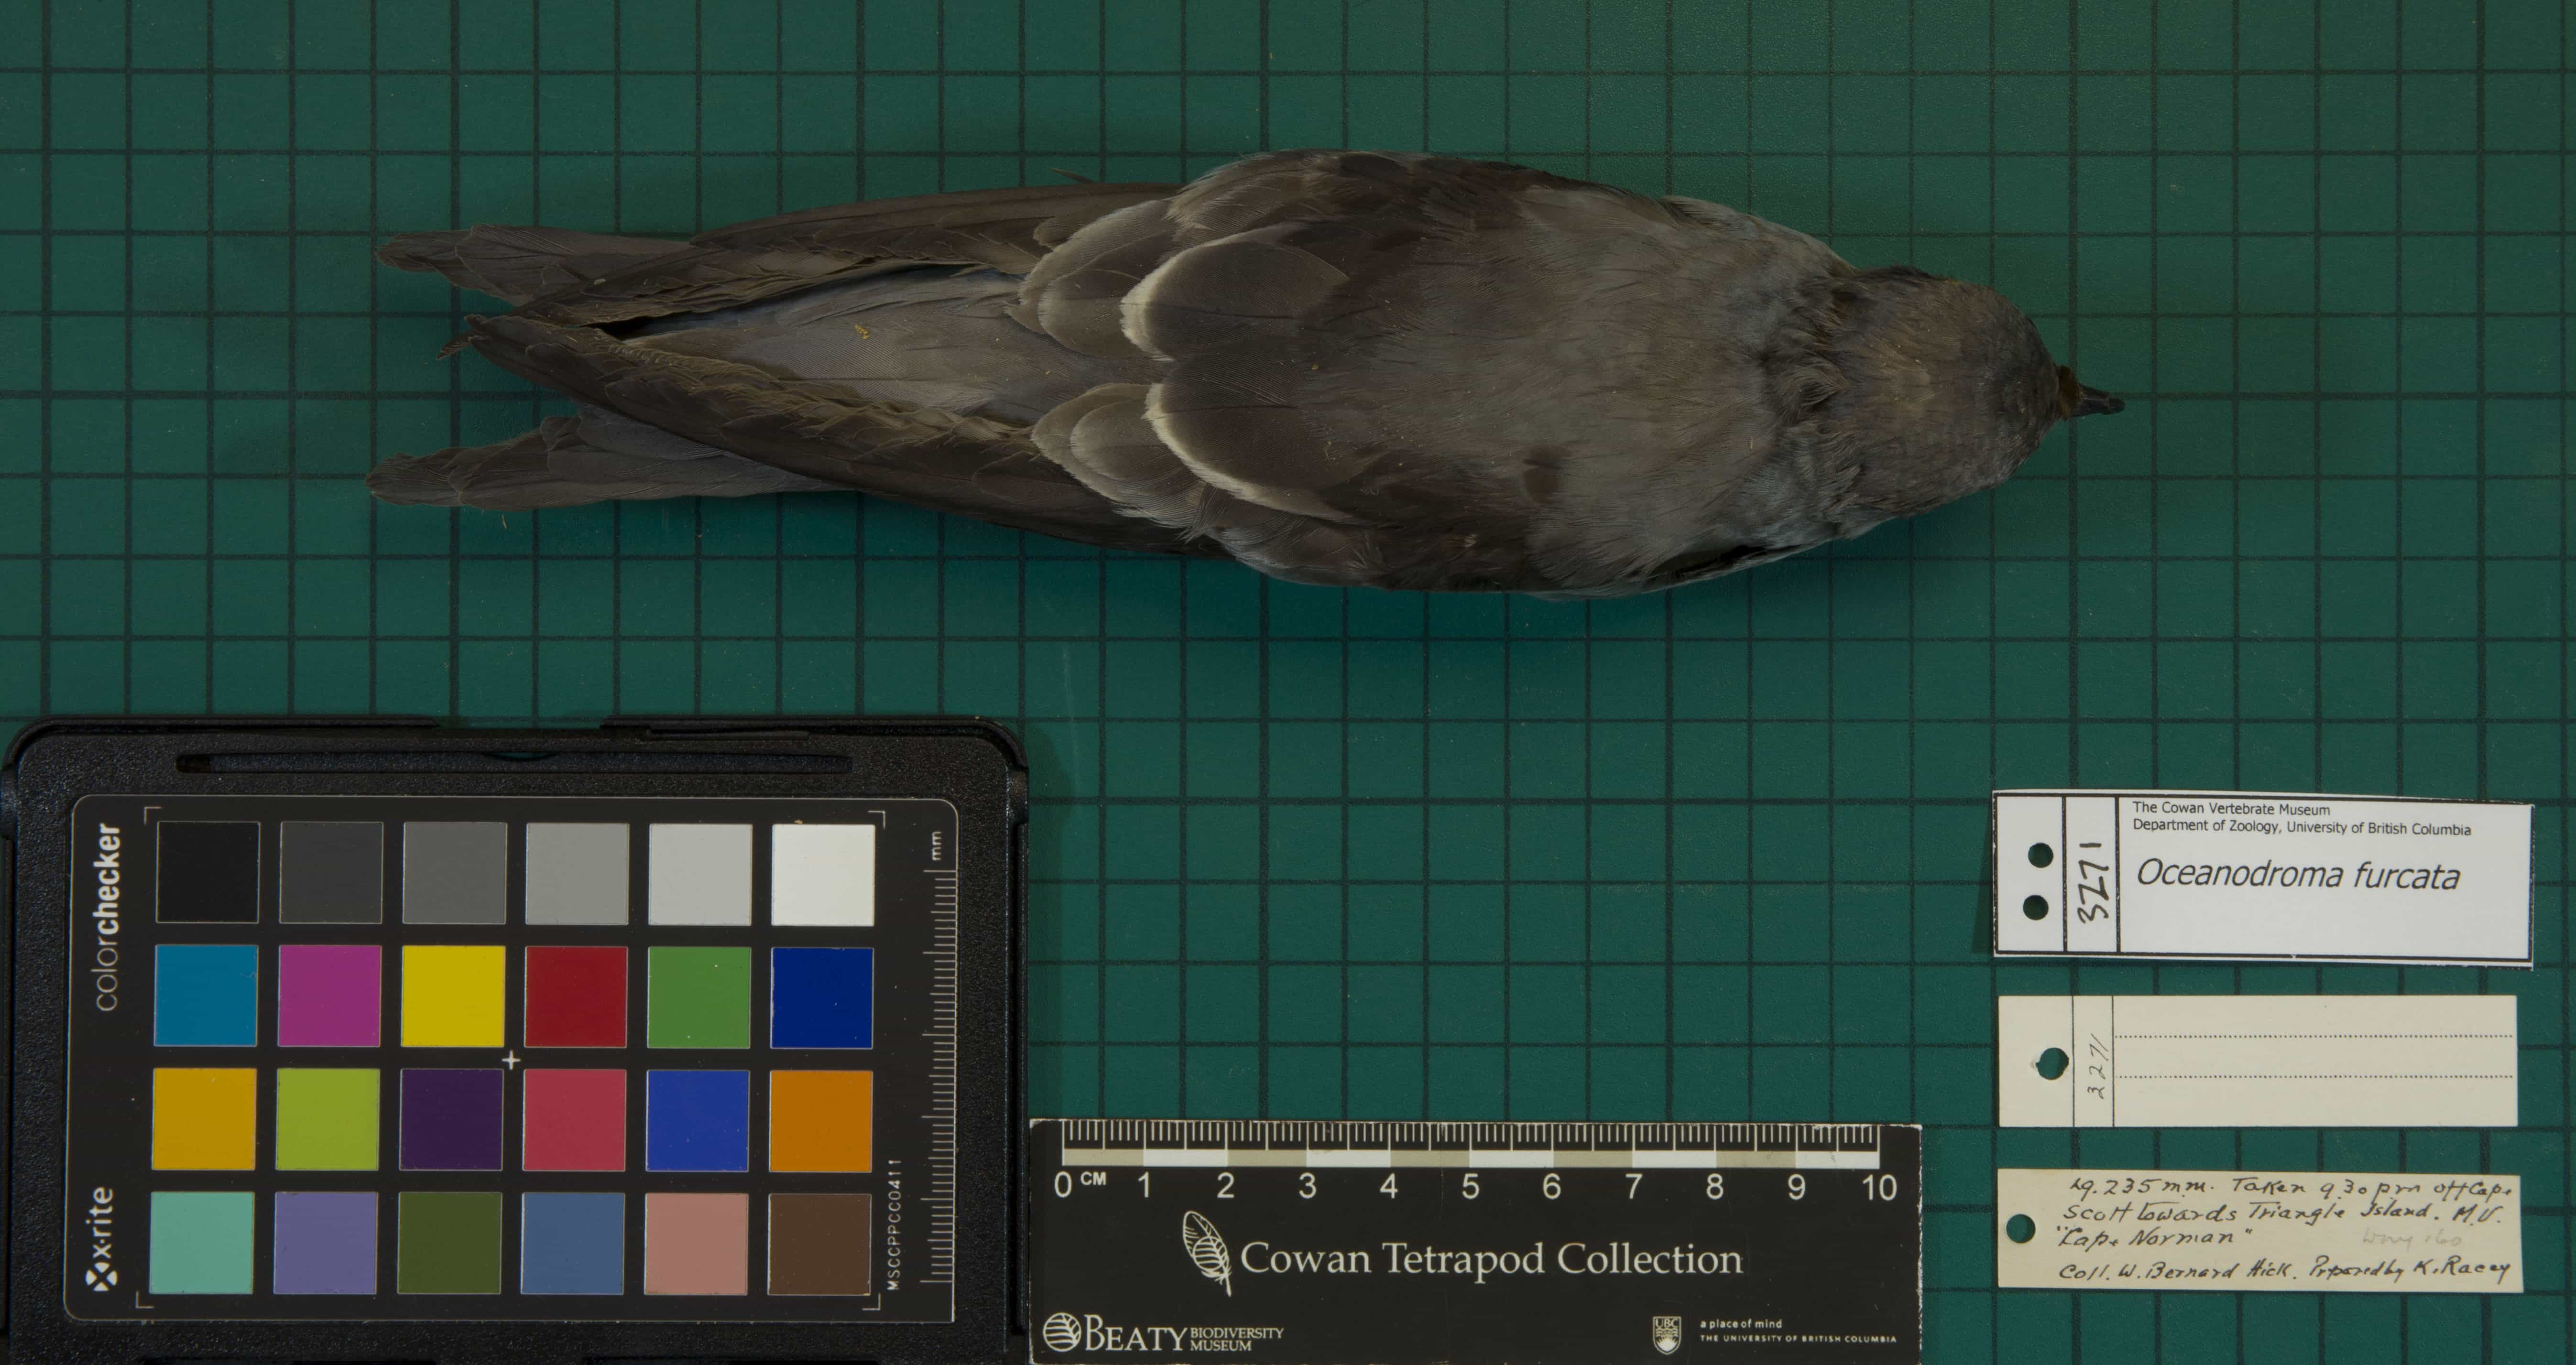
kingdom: Animalia
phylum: Chordata
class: Aves
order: Procellariiformes
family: Hydrobatidae
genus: Oceanodroma
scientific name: Oceanodroma furcata
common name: Fork-tailed Storm-Petrel
